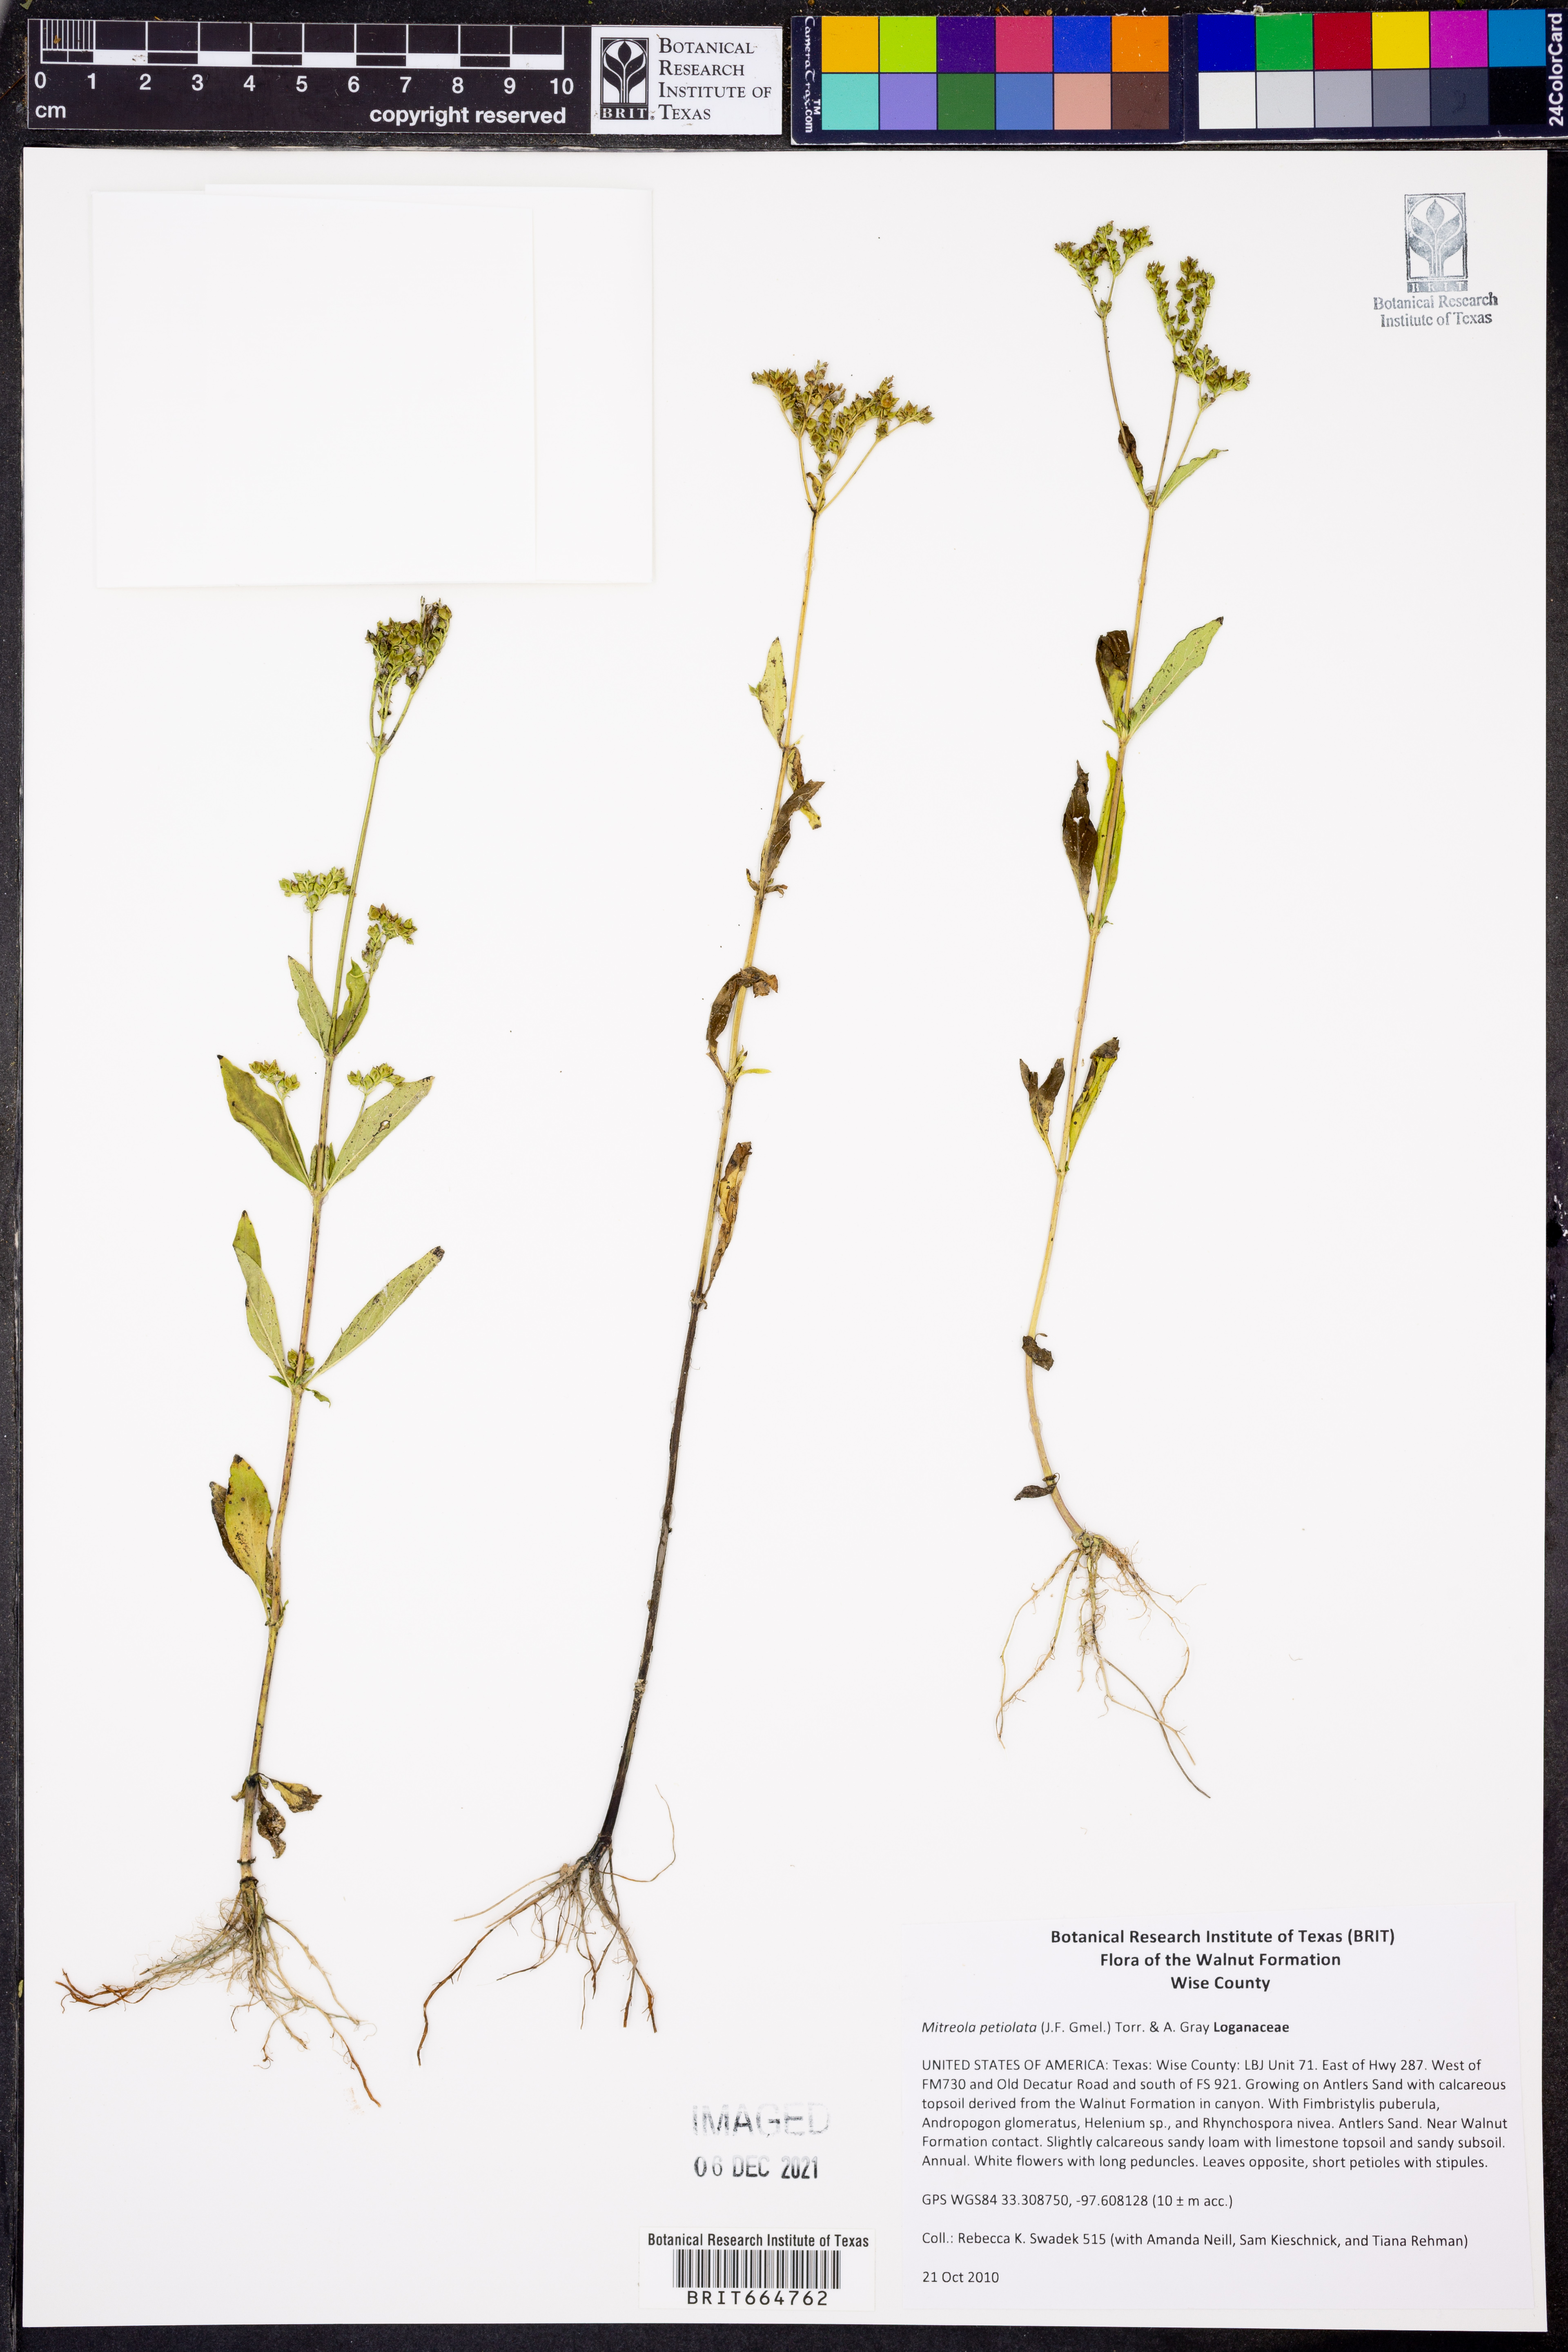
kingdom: Plantae
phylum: Tracheophyta
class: Magnoliopsida
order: Gentianales
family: Loganiaceae
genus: Mitreola
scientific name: Mitreola petiolata
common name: Lax hornpod
